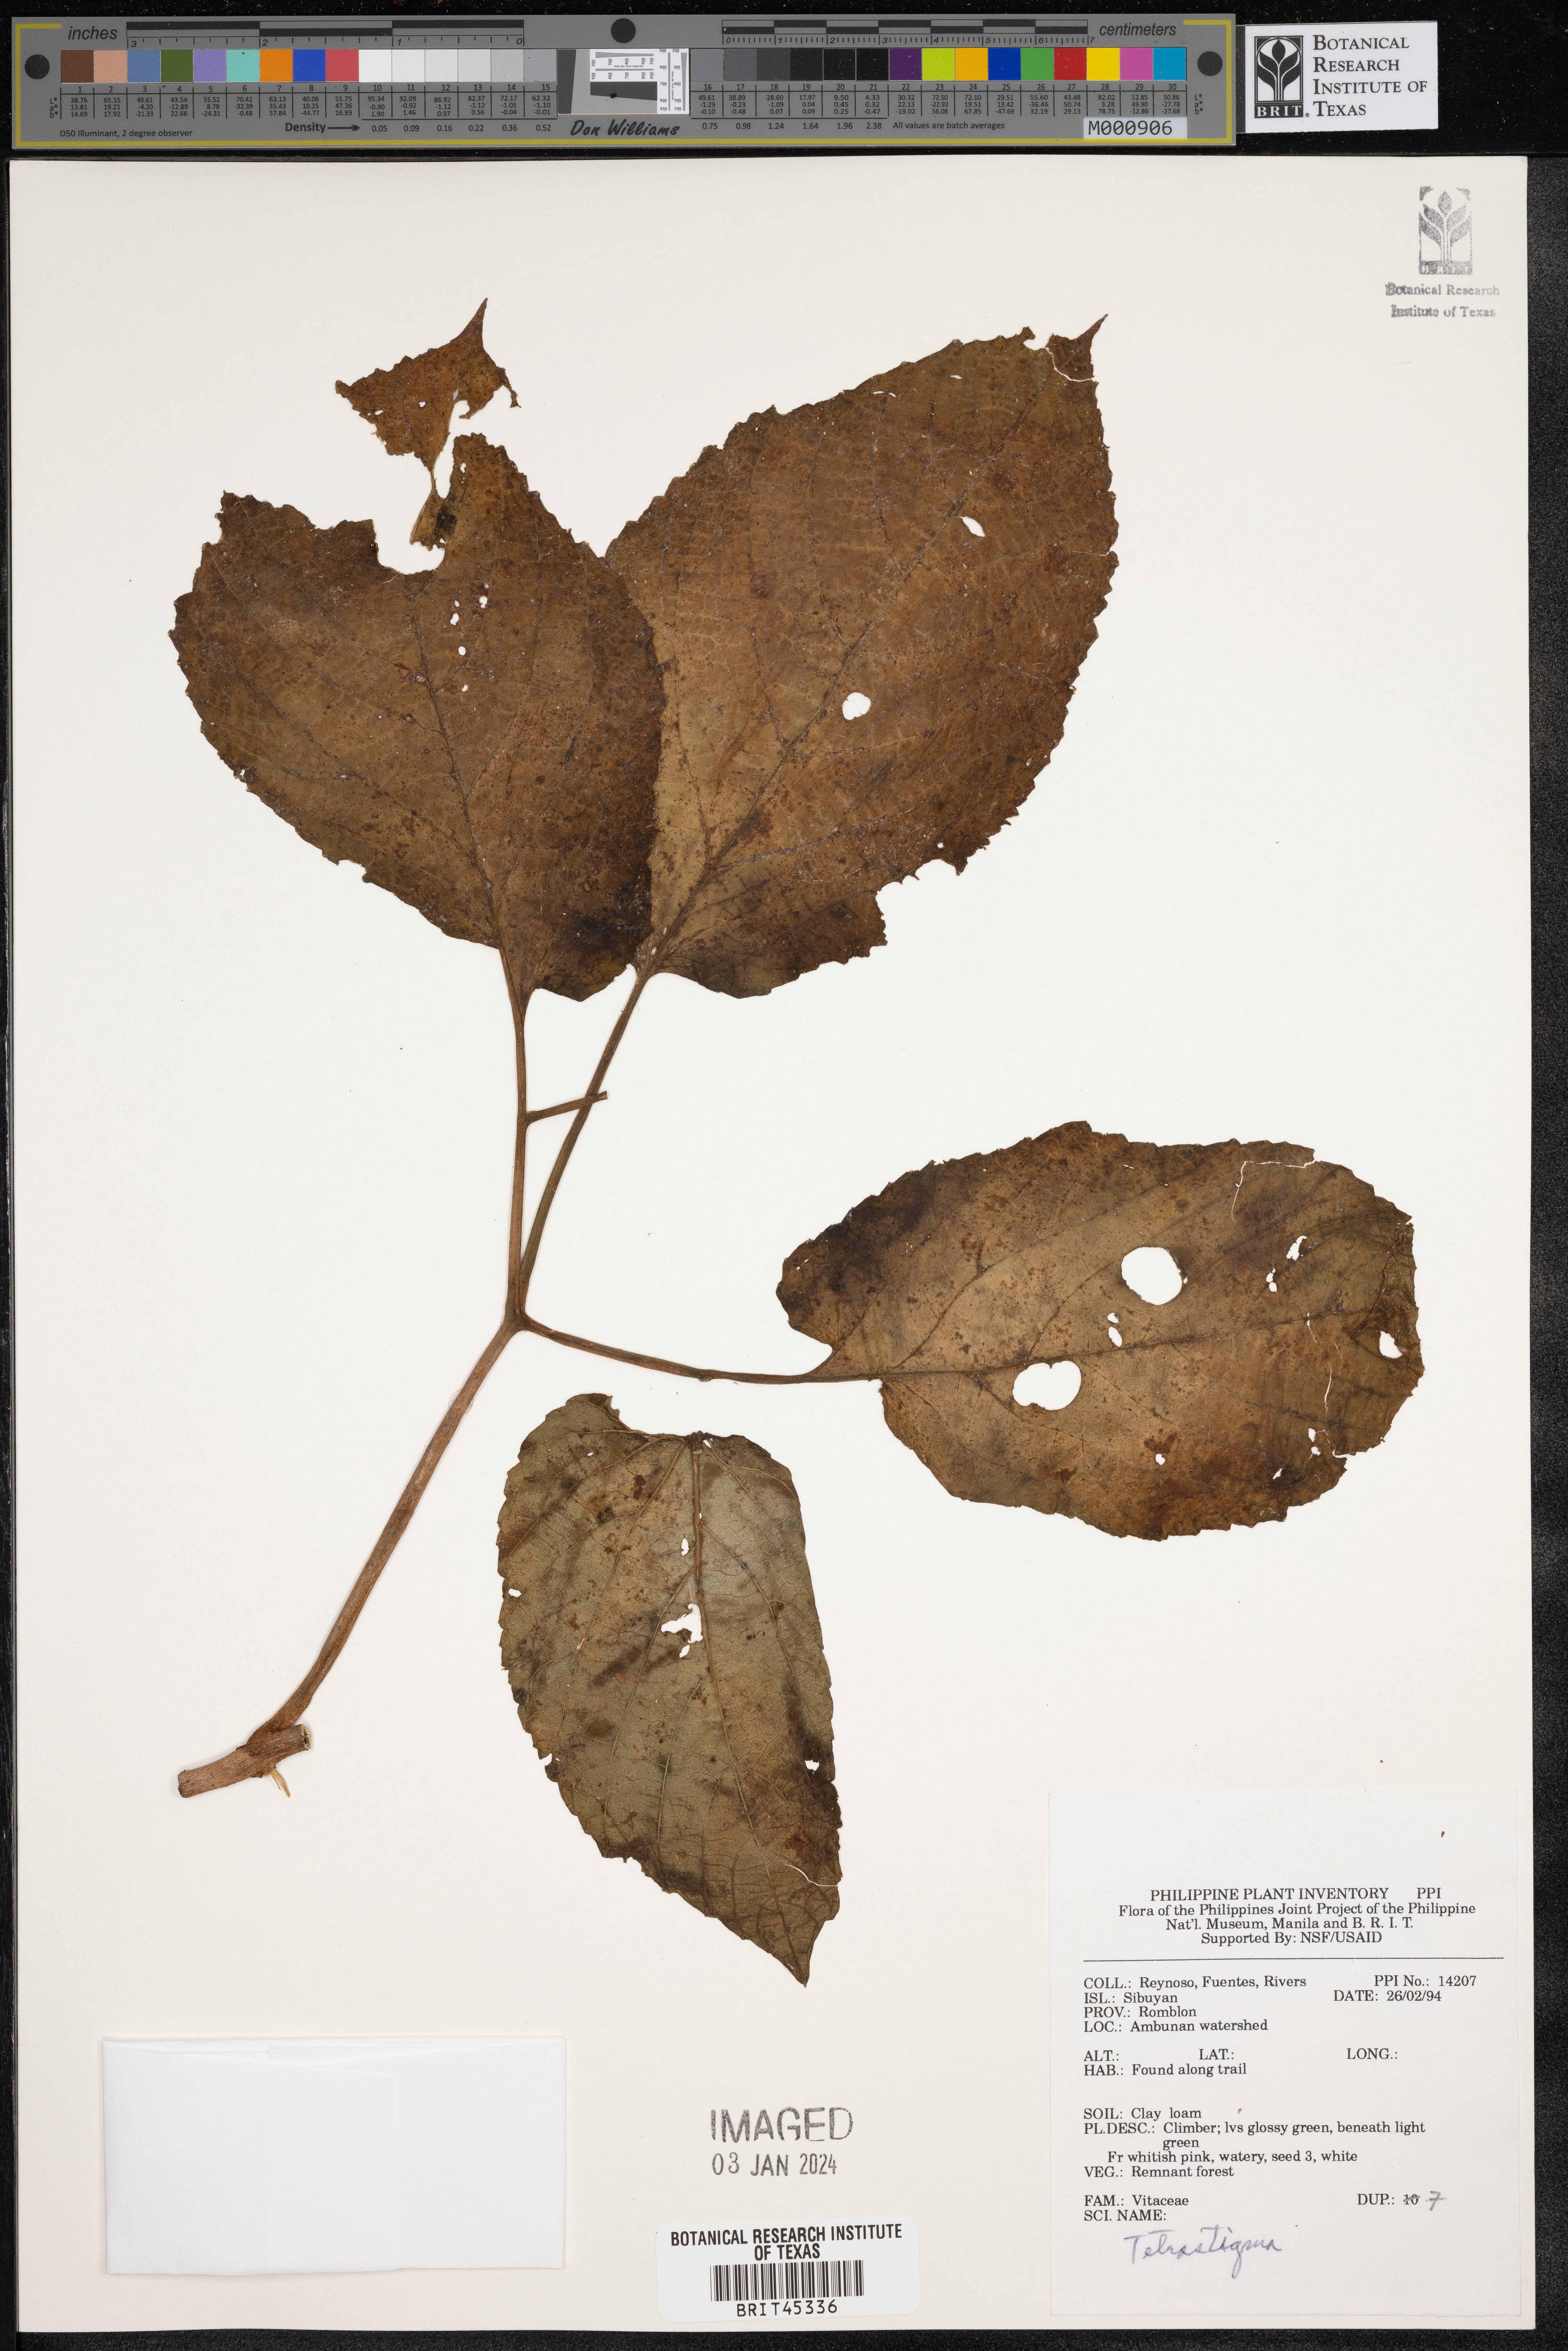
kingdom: Plantae
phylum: Tracheophyta
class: Magnoliopsida
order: Vitales
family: Vitaceae
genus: Tetrastigma
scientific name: Tetrastigma
